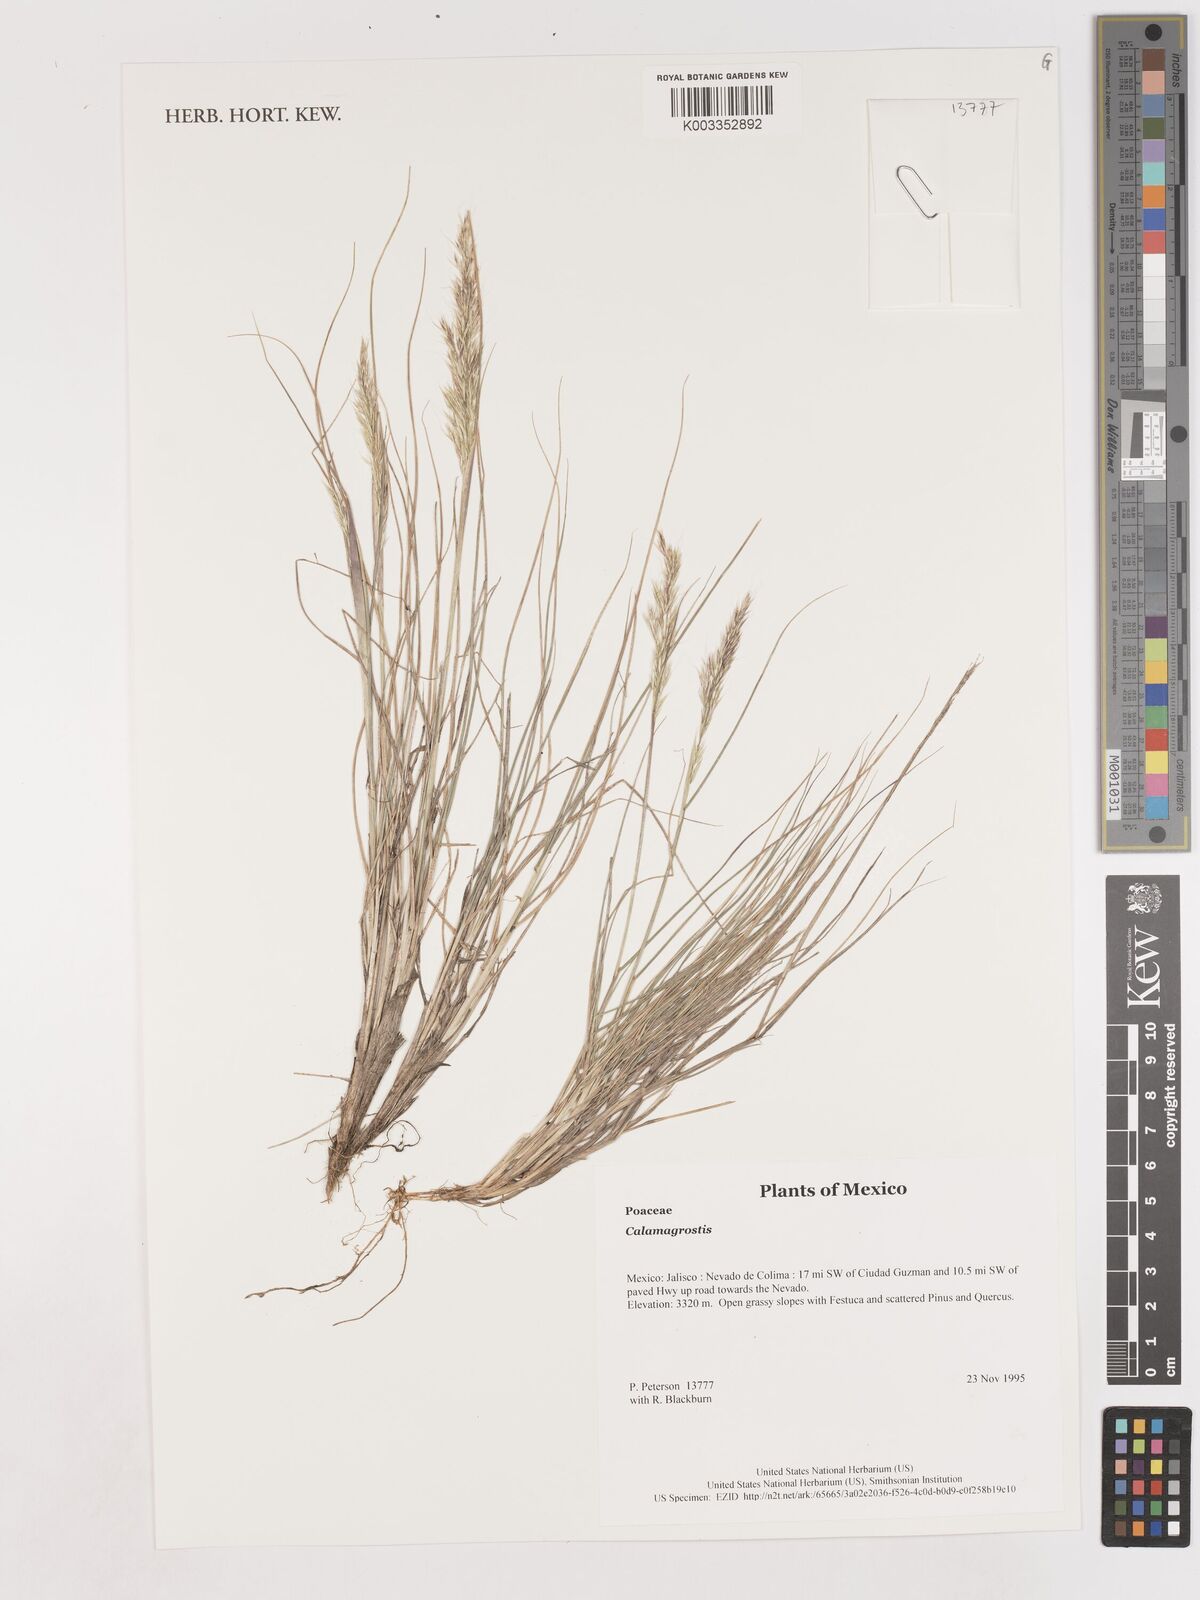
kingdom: Plantae
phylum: Tracheophyta
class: Liliopsida
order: Poales
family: Poaceae
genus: Calamagrostis
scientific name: Calamagrostis
